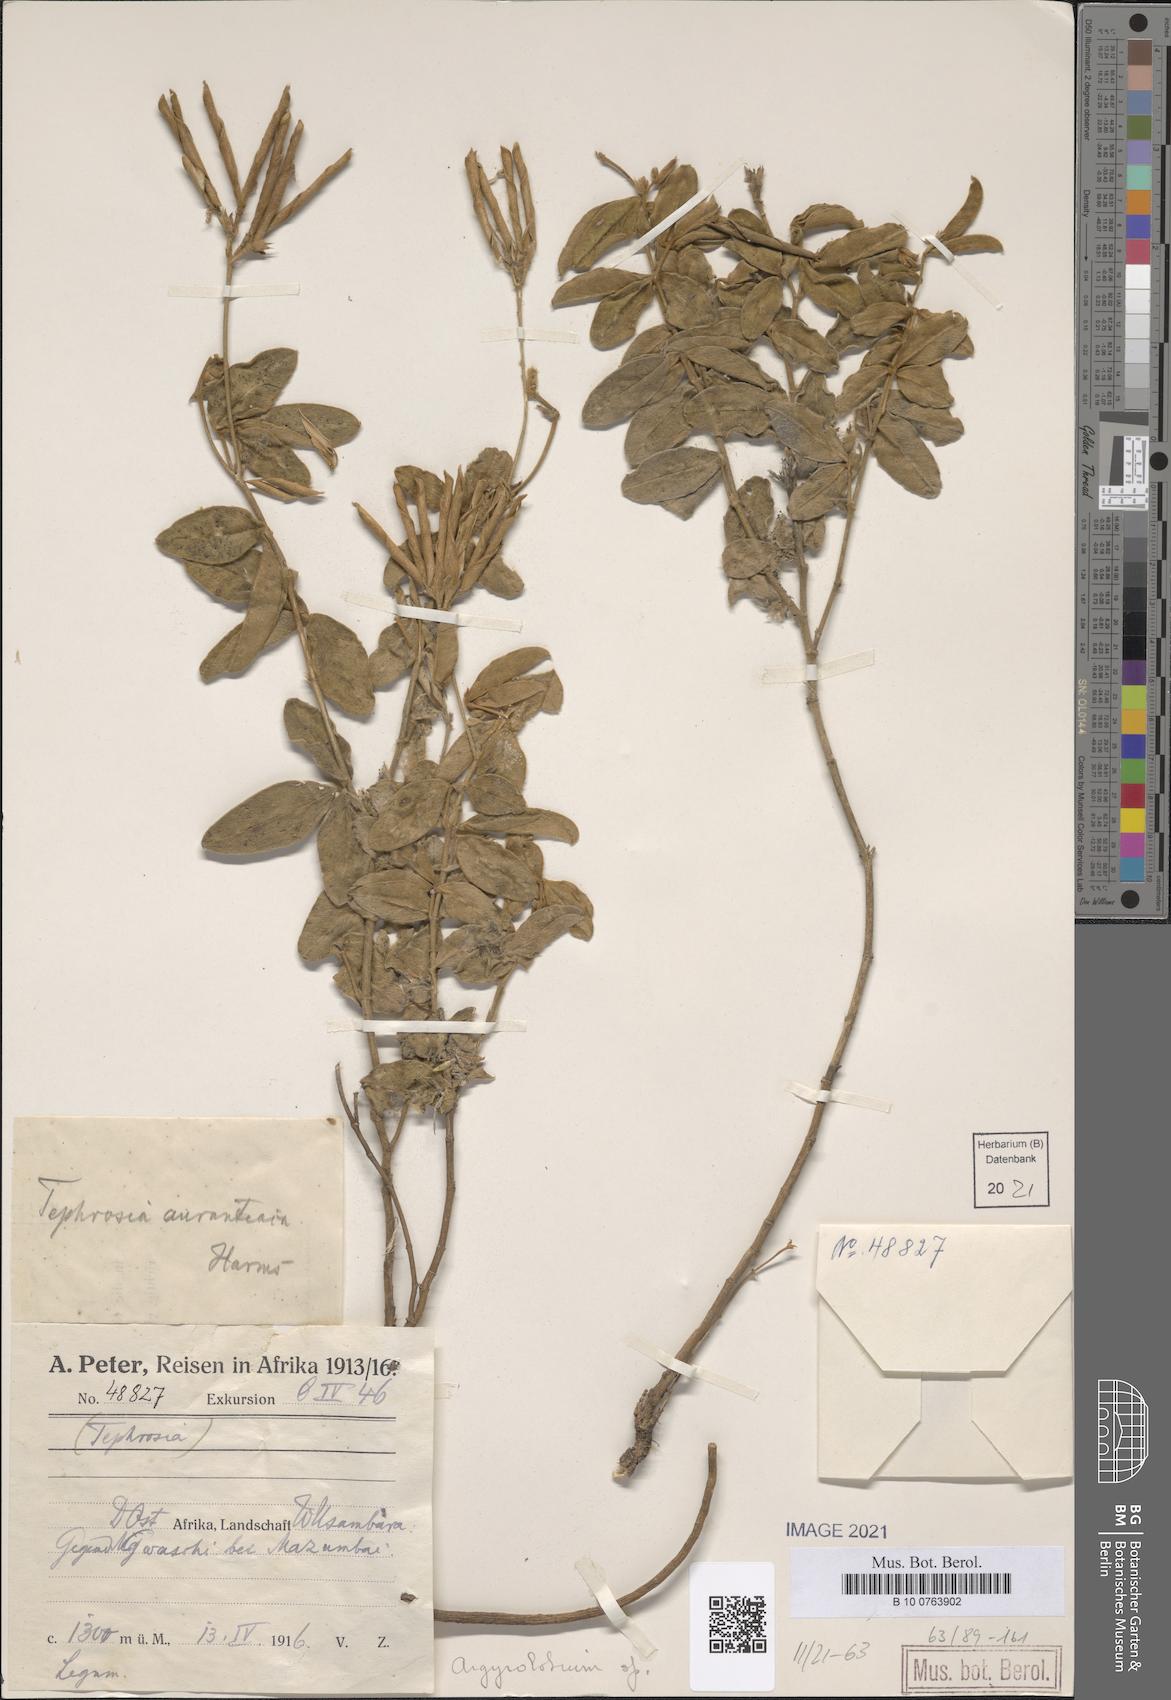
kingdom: Plantae
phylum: Tracheophyta
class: Magnoliopsida
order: Fabales
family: Fabaceae
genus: Argyrolobium
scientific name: Argyrolobium
